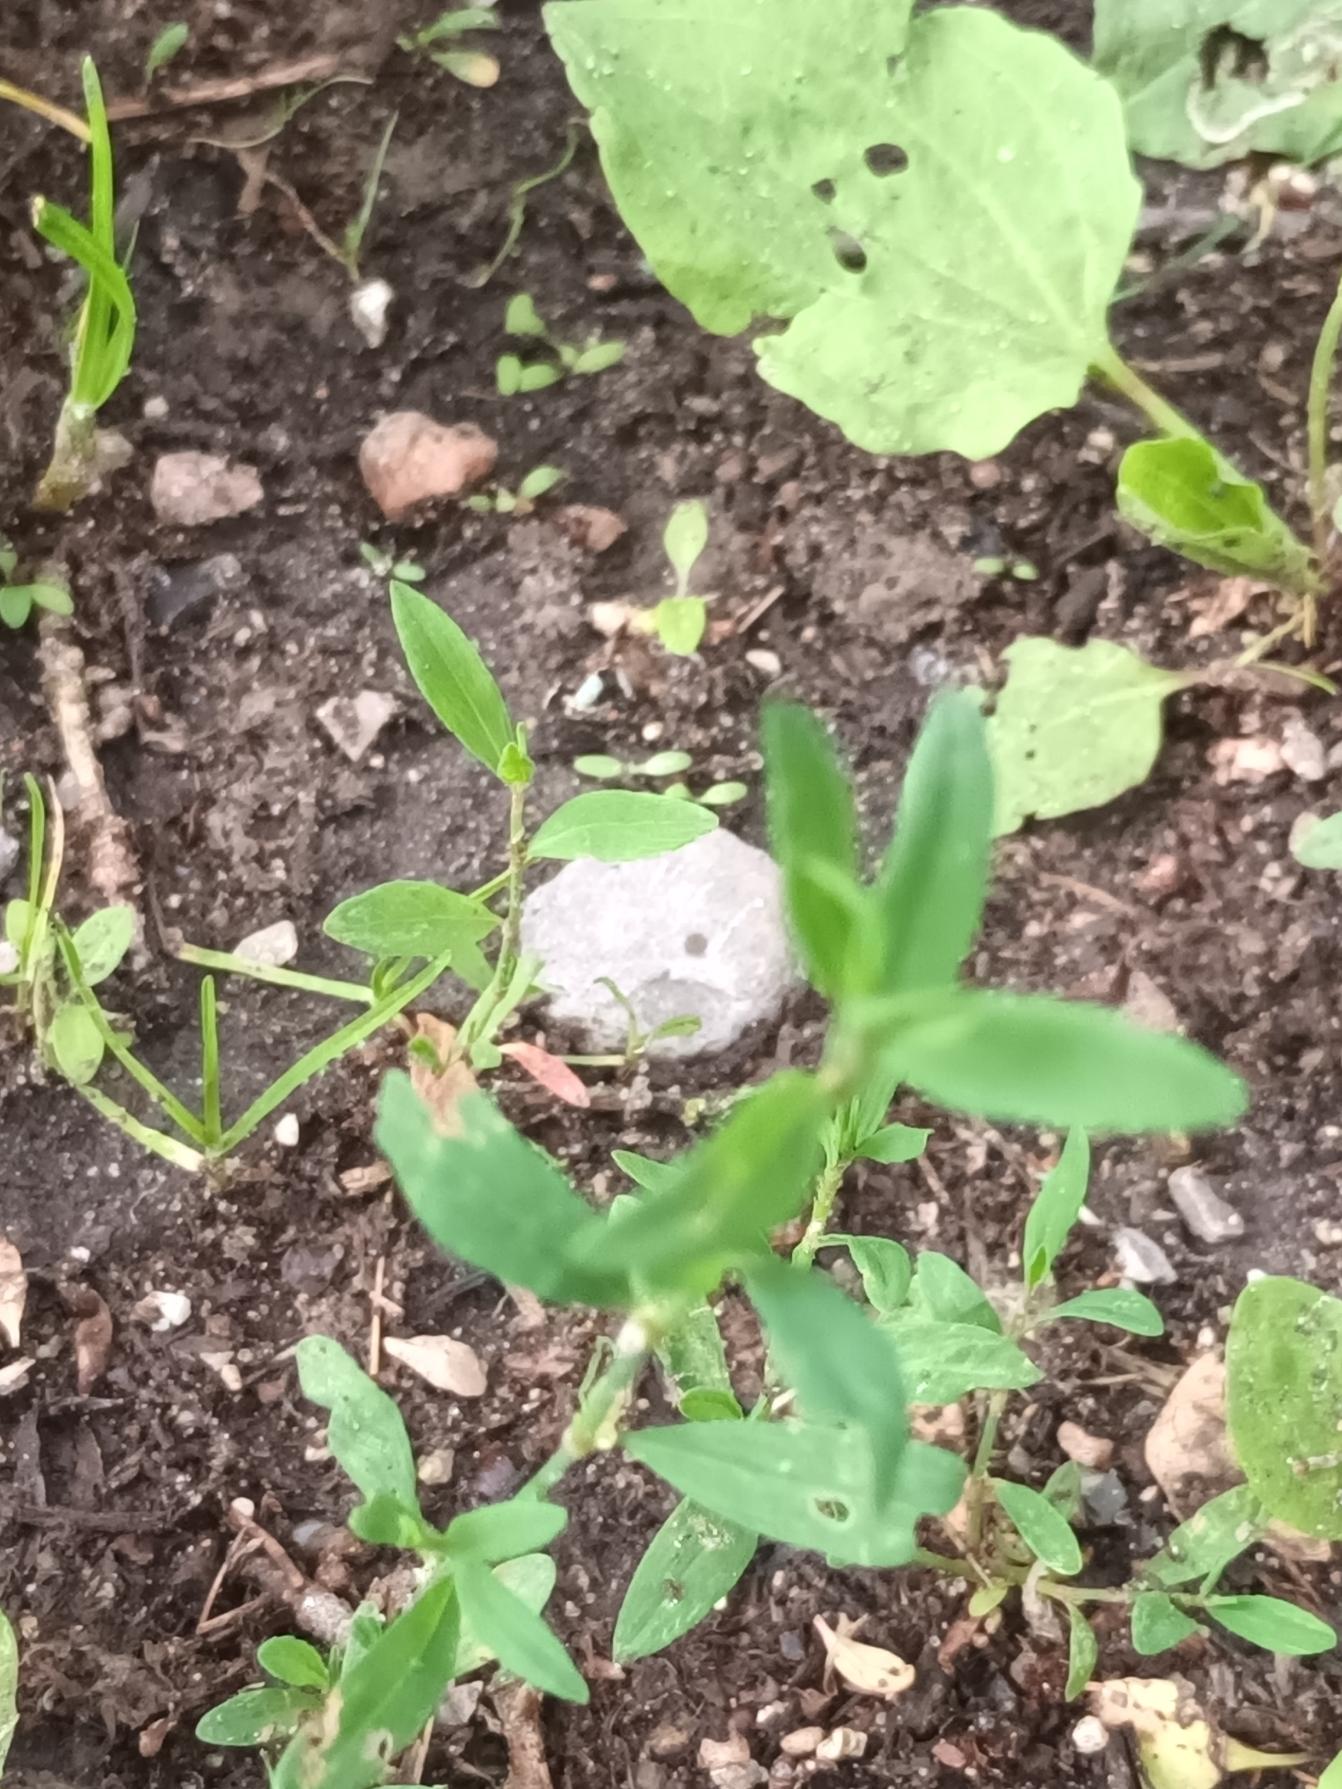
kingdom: Plantae
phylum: Tracheophyta
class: Magnoliopsida
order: Caryophyllales
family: Polygonaceae
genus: Polygonum
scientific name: Polygonum aviculare
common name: Vej-pileurt
